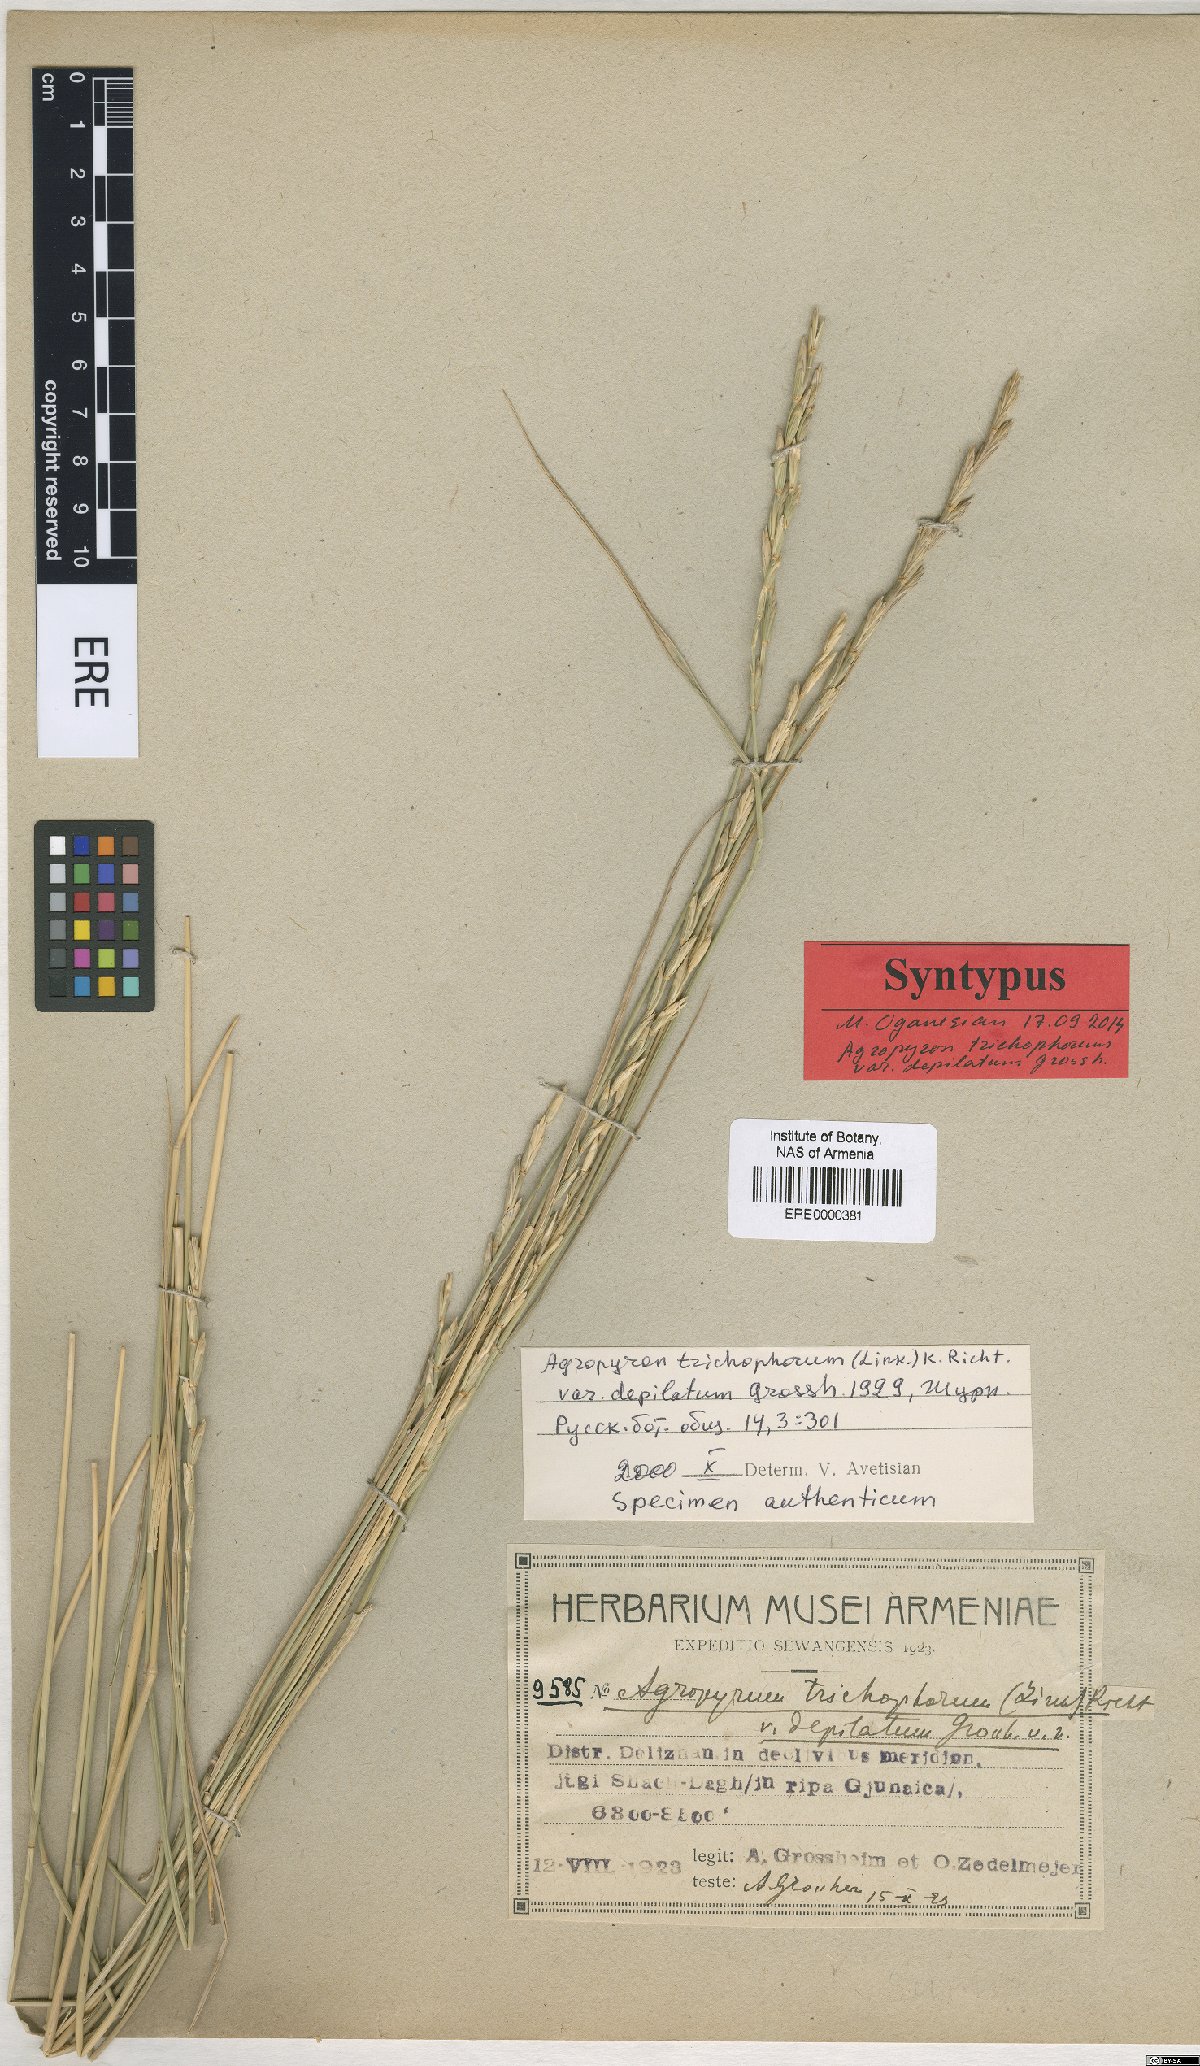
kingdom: Plantae
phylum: Tracheophyta
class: Liliopsida
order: Poales
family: Poaceae
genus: Thinopyrum
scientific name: Thinopyrum intermedium
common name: Intermediate wheatgrass
